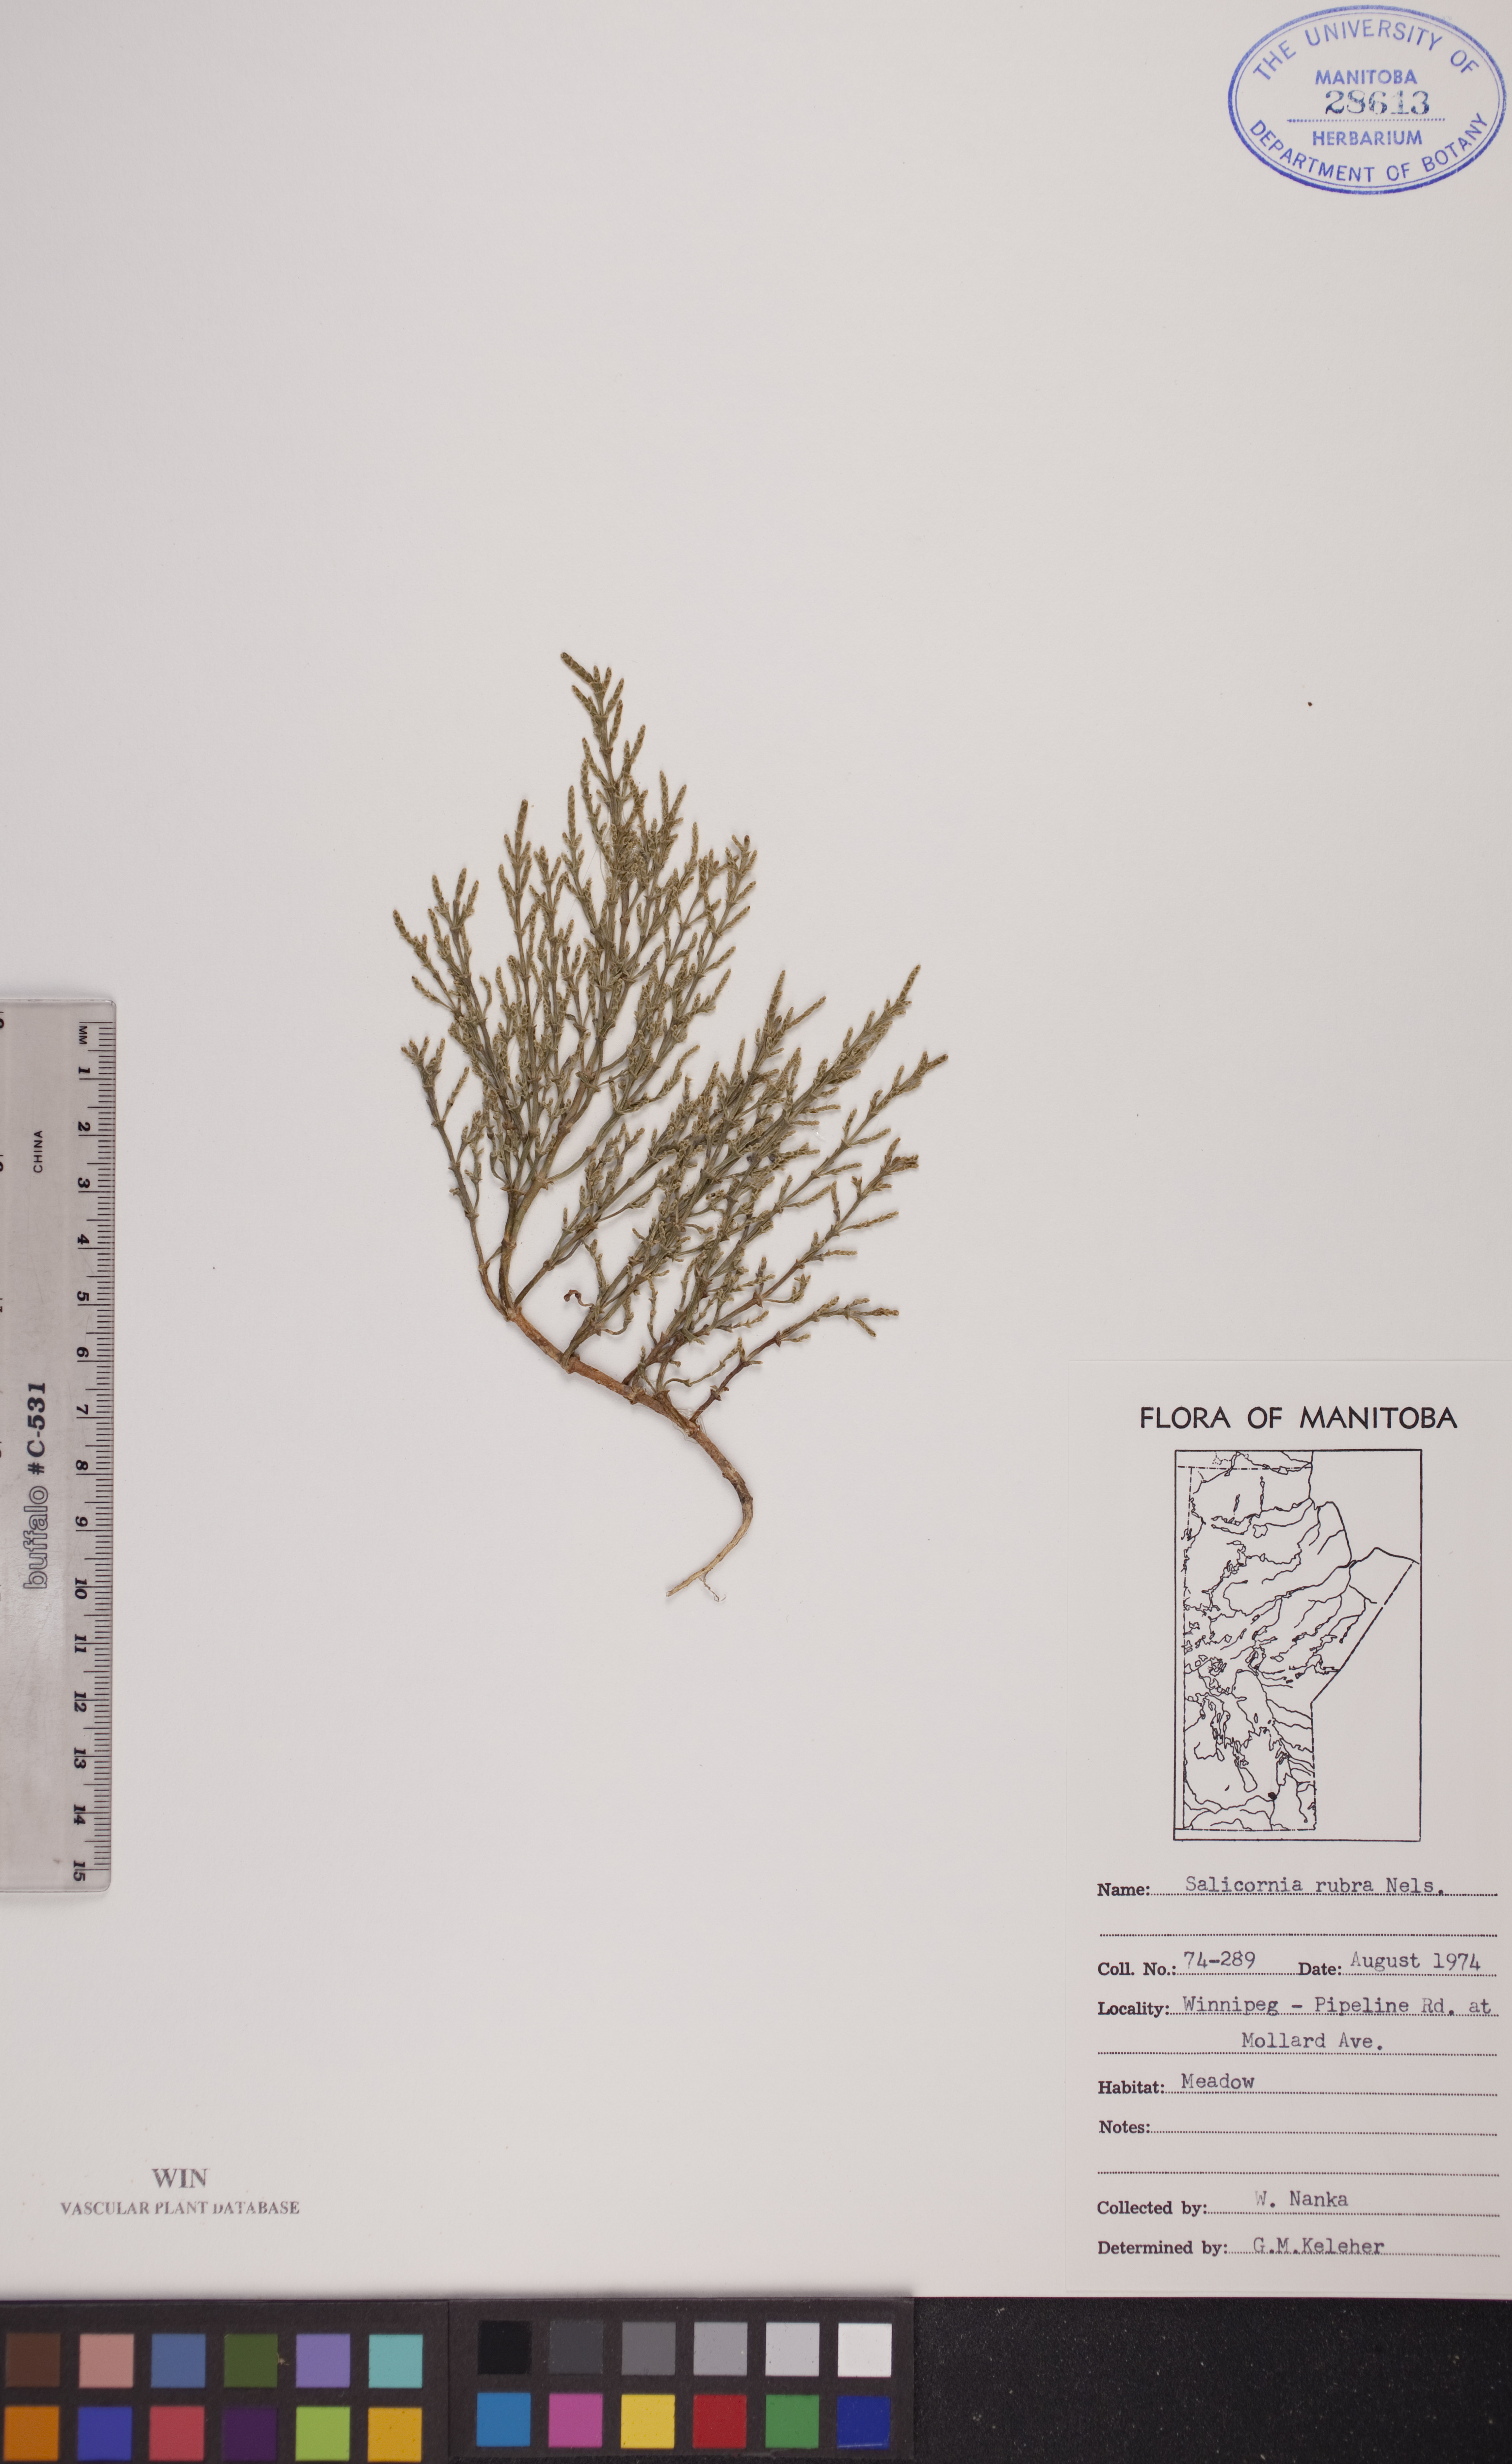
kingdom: Plantae
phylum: Tracheophyta
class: Magnoliopsida
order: Caryophyllales
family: Amaranthaceae
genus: Salicornia
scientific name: Salicornia rubra
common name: Red glasswort
